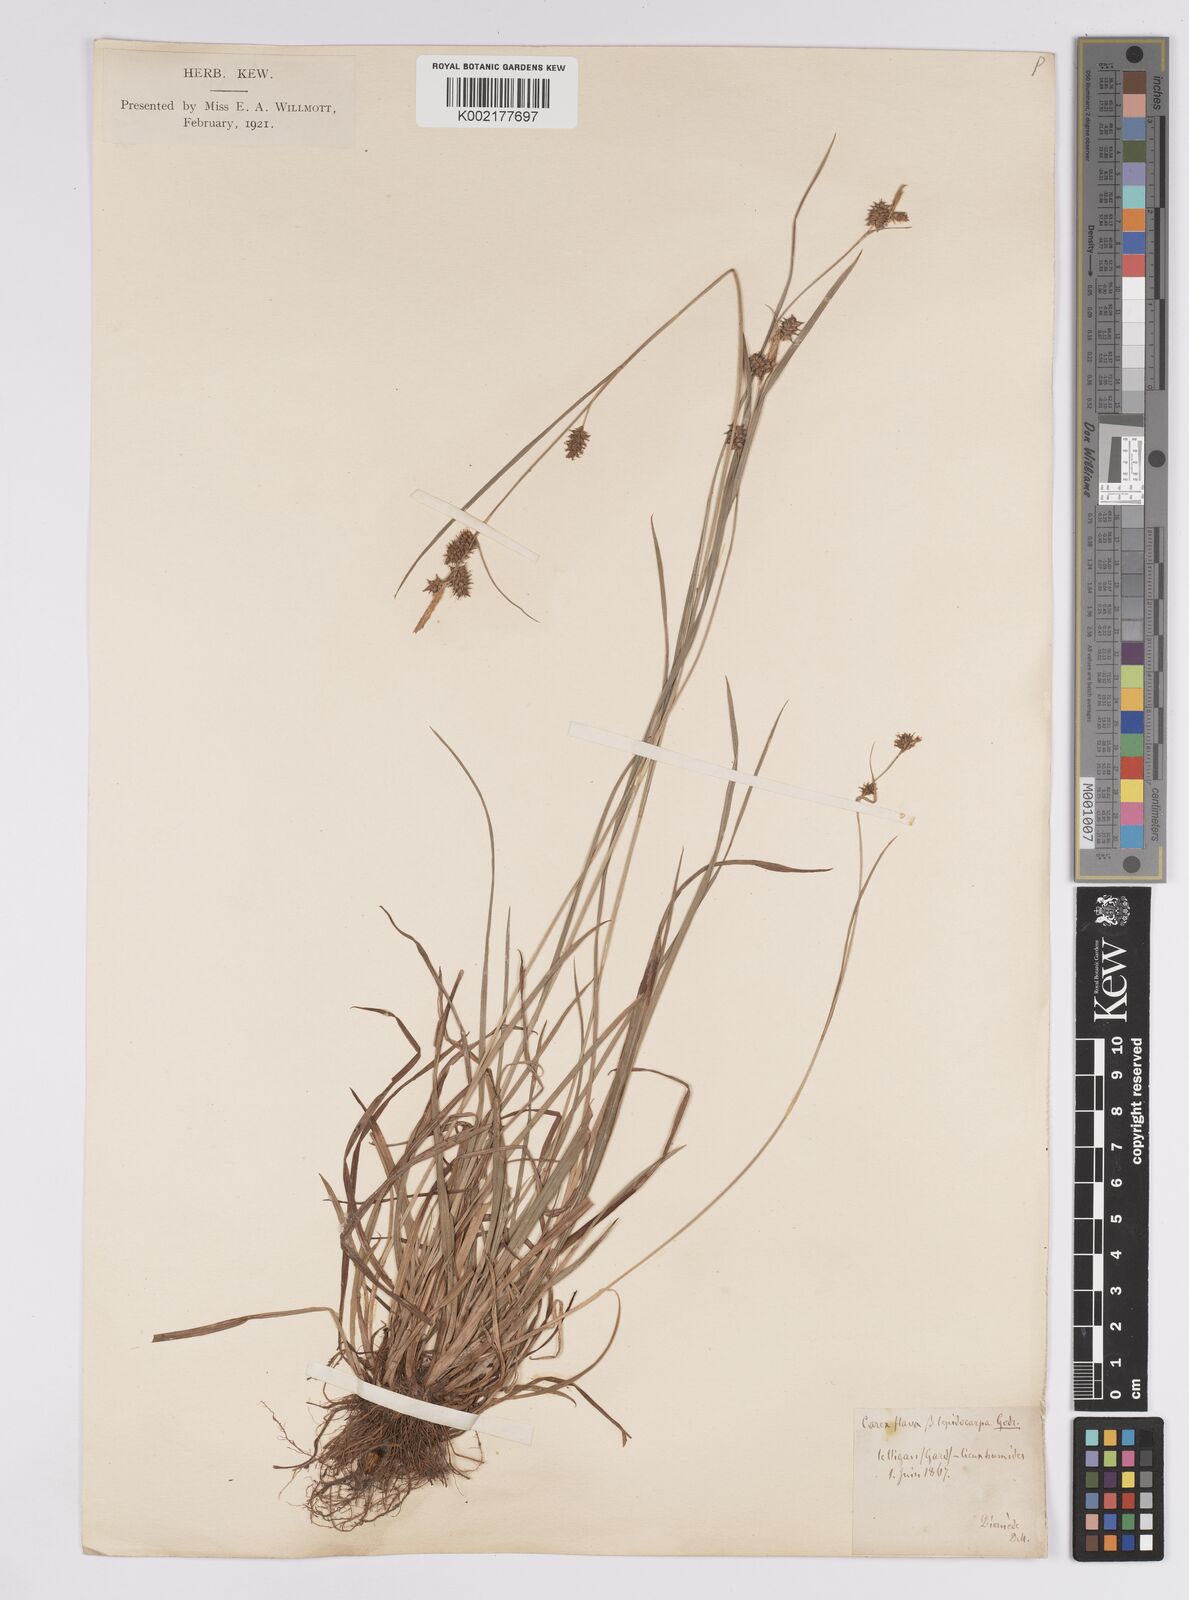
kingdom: Plantae
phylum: Tracheophyta
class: Liliopsida
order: Poales
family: Cyperaceae
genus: Carex
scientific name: Carex mairei
